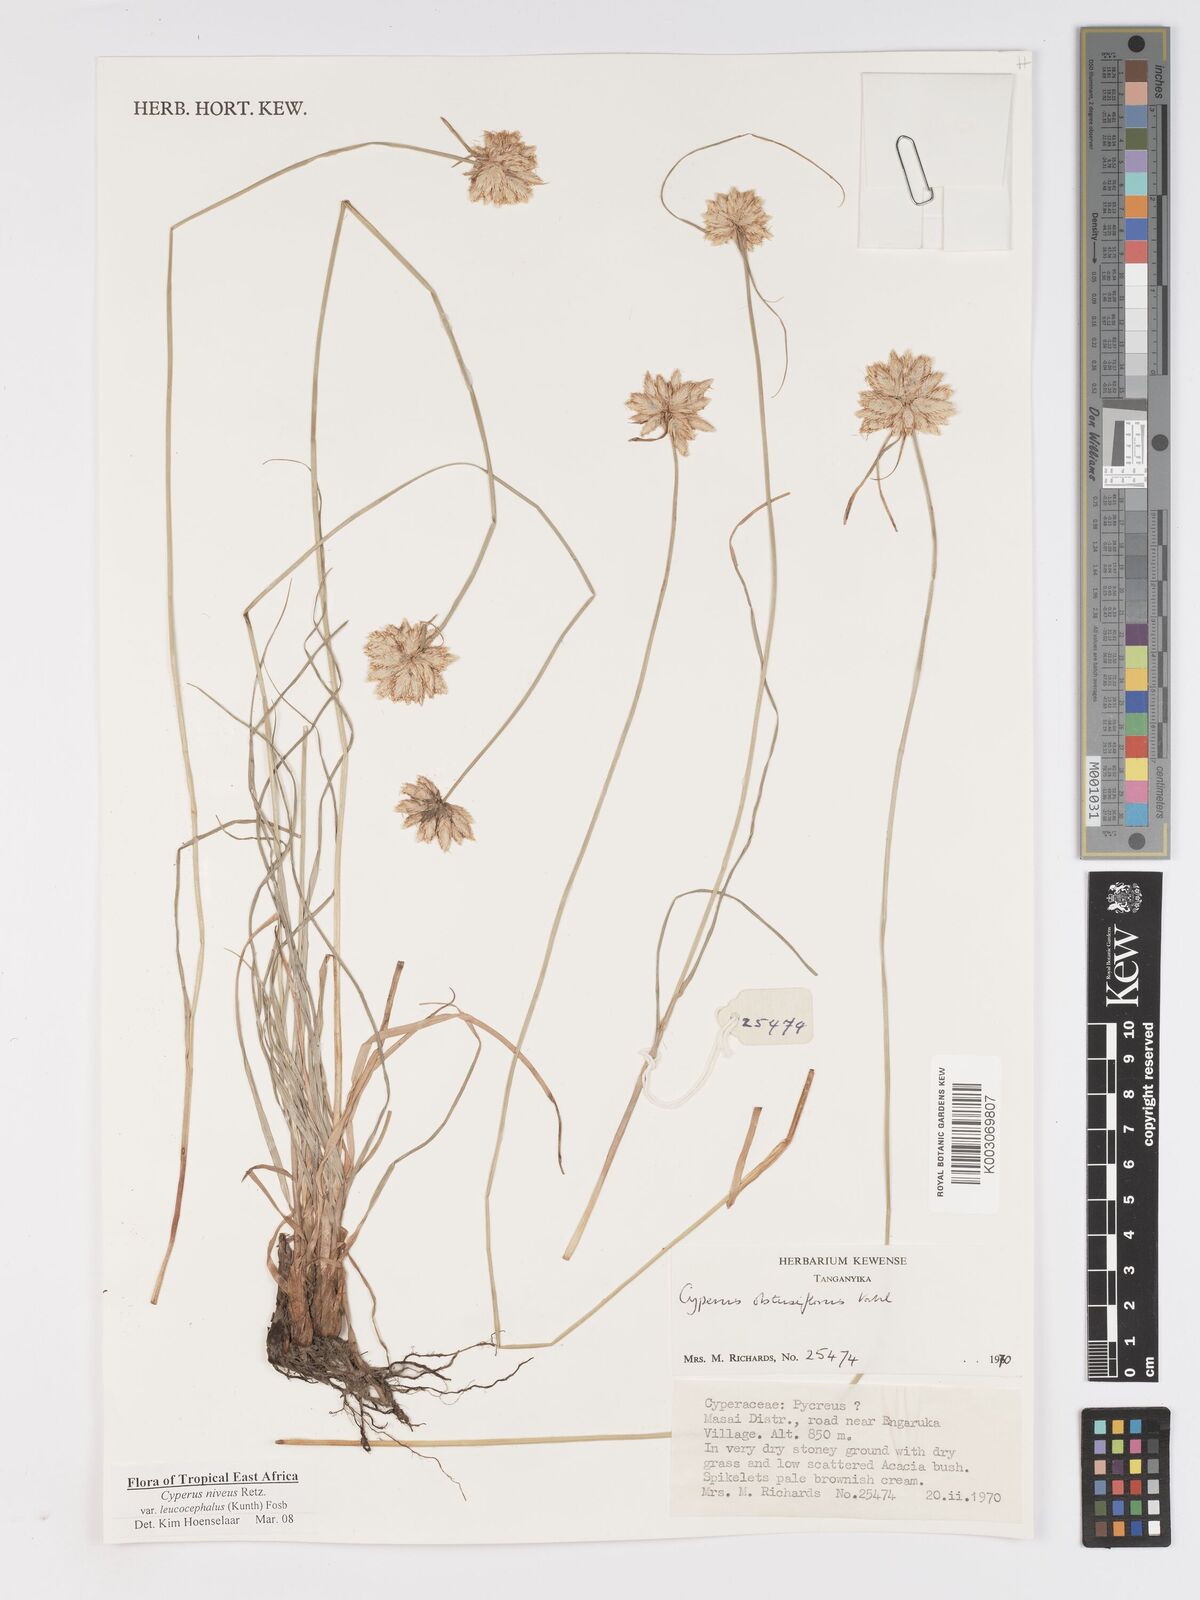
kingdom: Plantae
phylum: Tracheophyta
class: Liliopsida
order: Poales
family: Cyperaceae
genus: Cyperus
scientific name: Cyperus niveus
